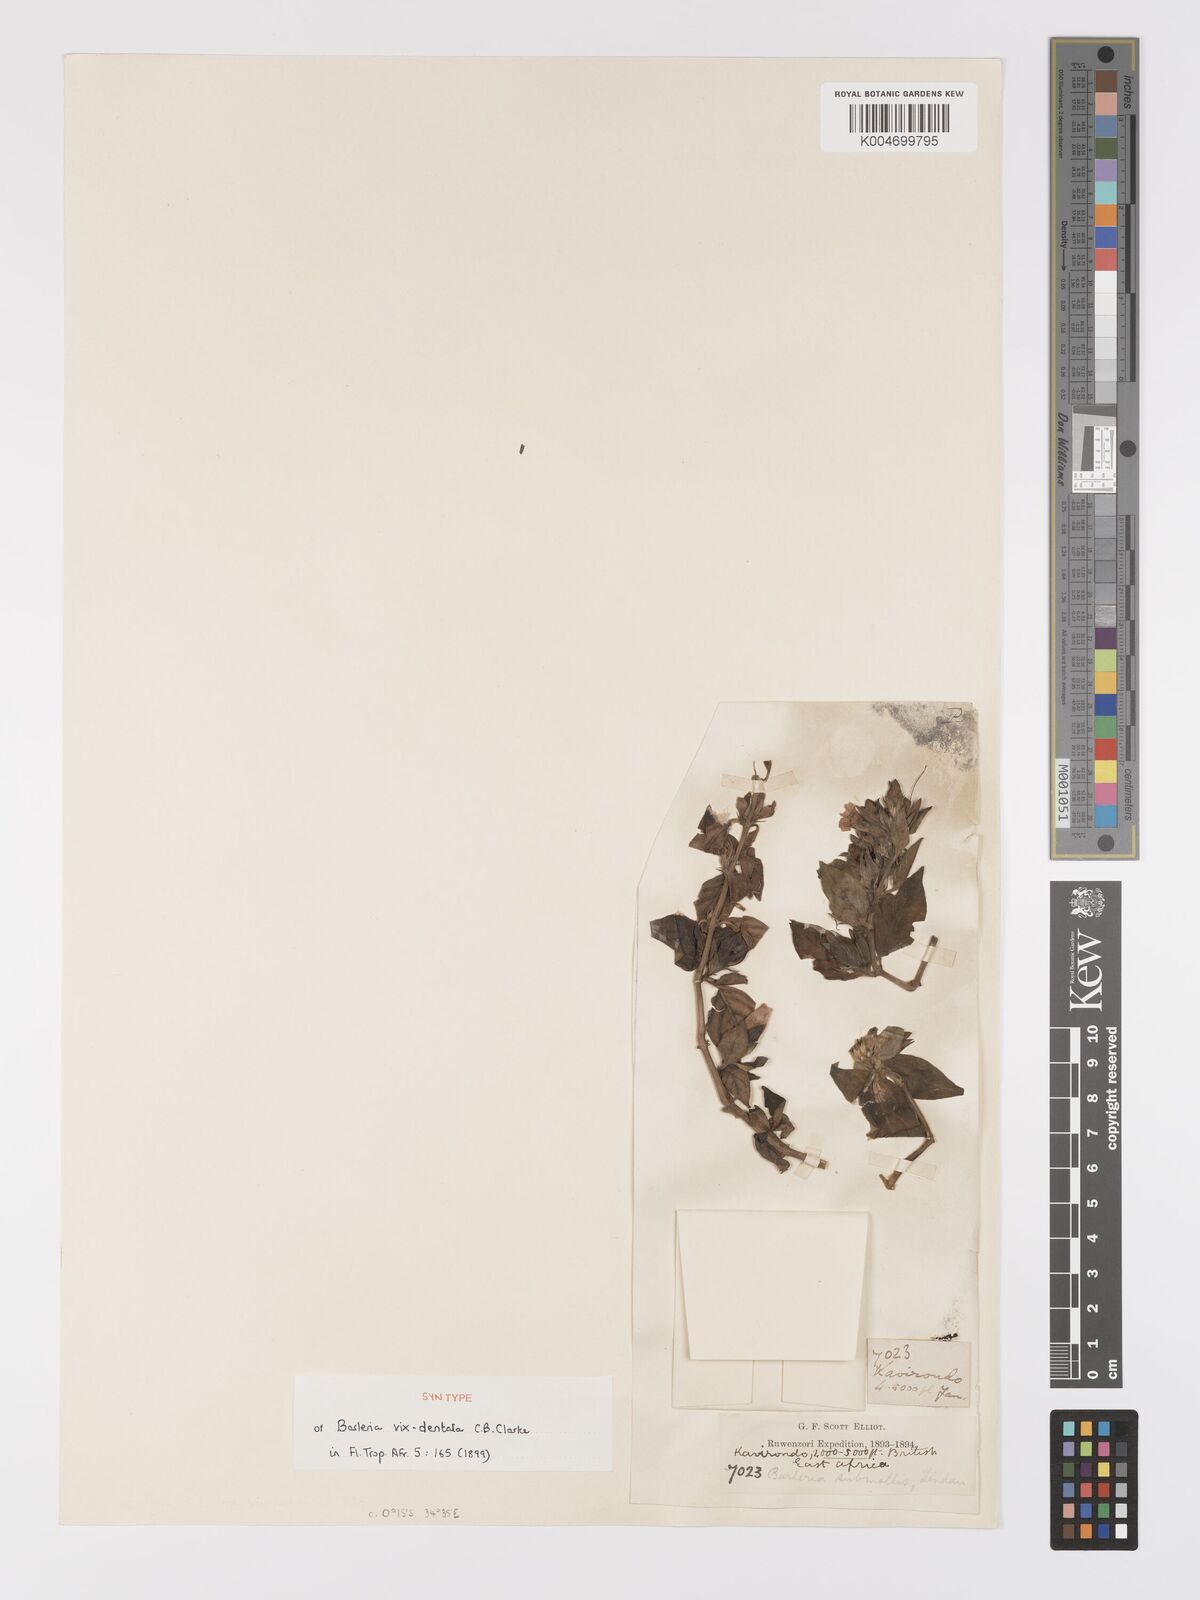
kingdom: Plantae
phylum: Tracheophyta
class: Magnoliopsida
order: Lamiales
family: Acanthaceae
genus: Barleria
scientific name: Barleria ventricosa
